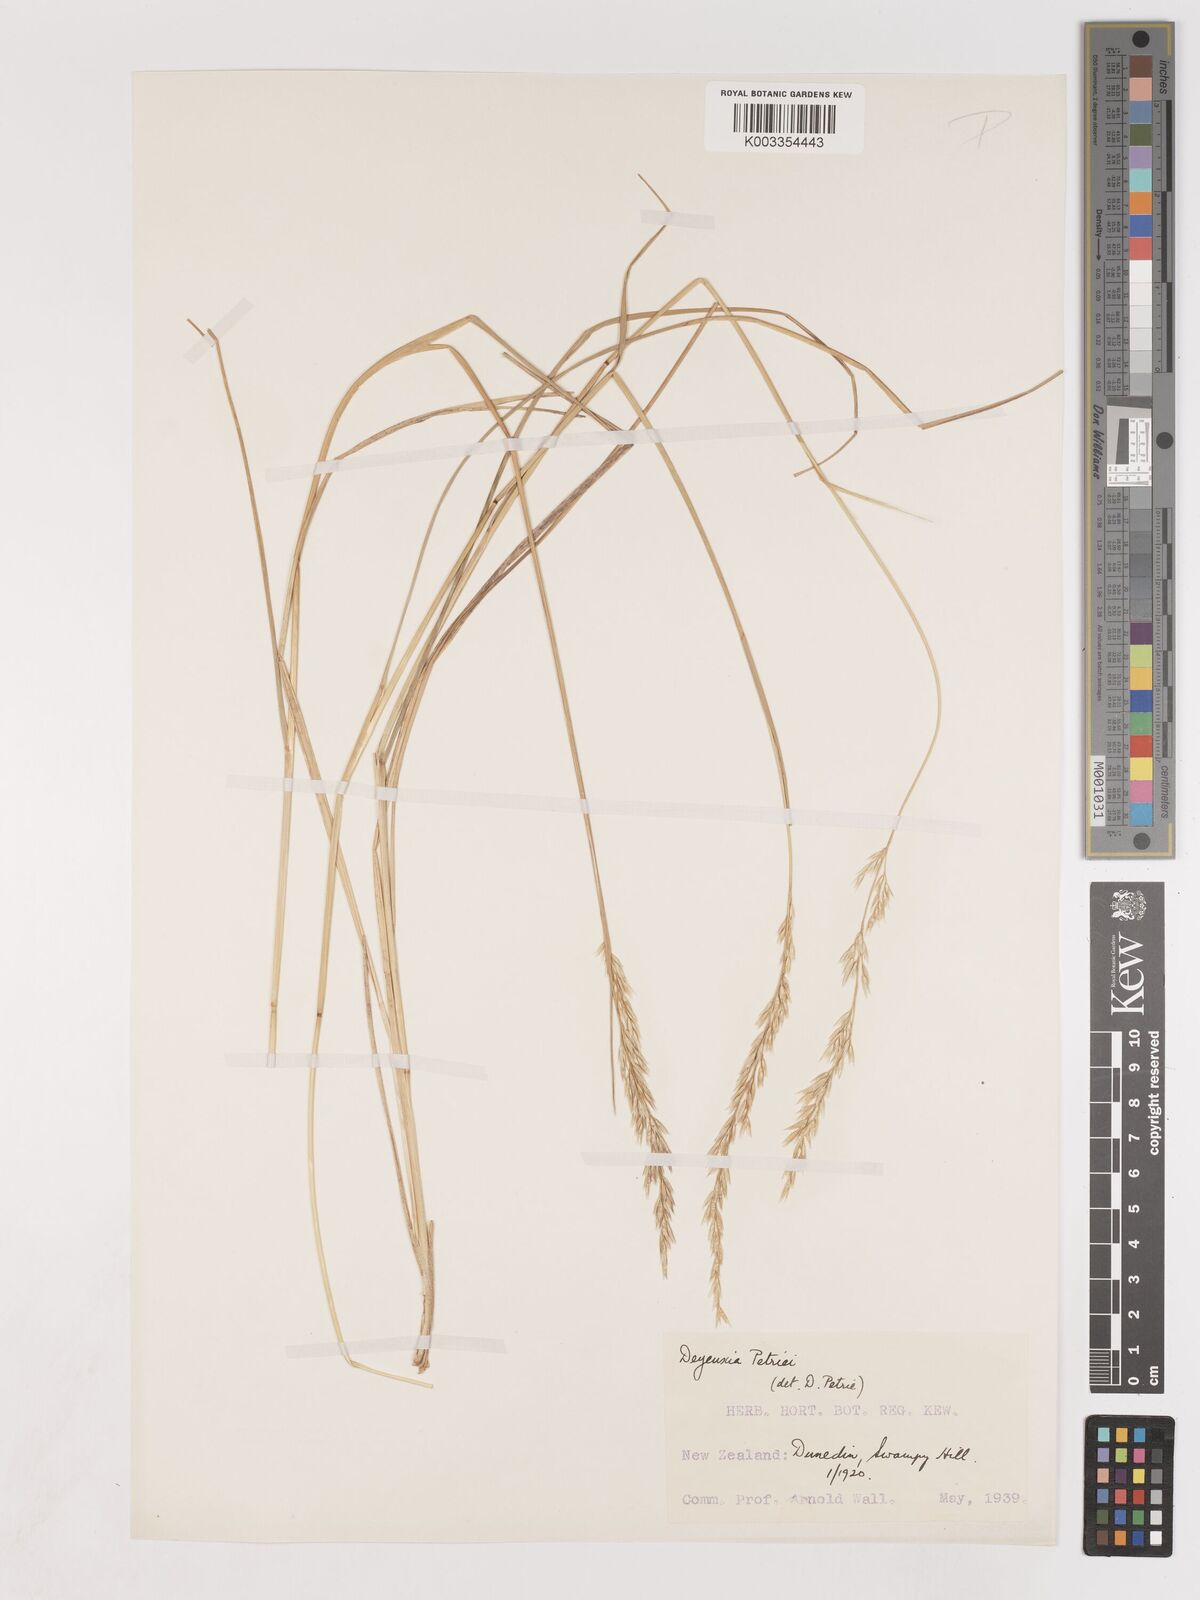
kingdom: Plantae
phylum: Tracheophyta
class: Liliopsida
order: Poales
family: Poaceae
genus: Calamagrostis
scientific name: Calamagrostis youngii
